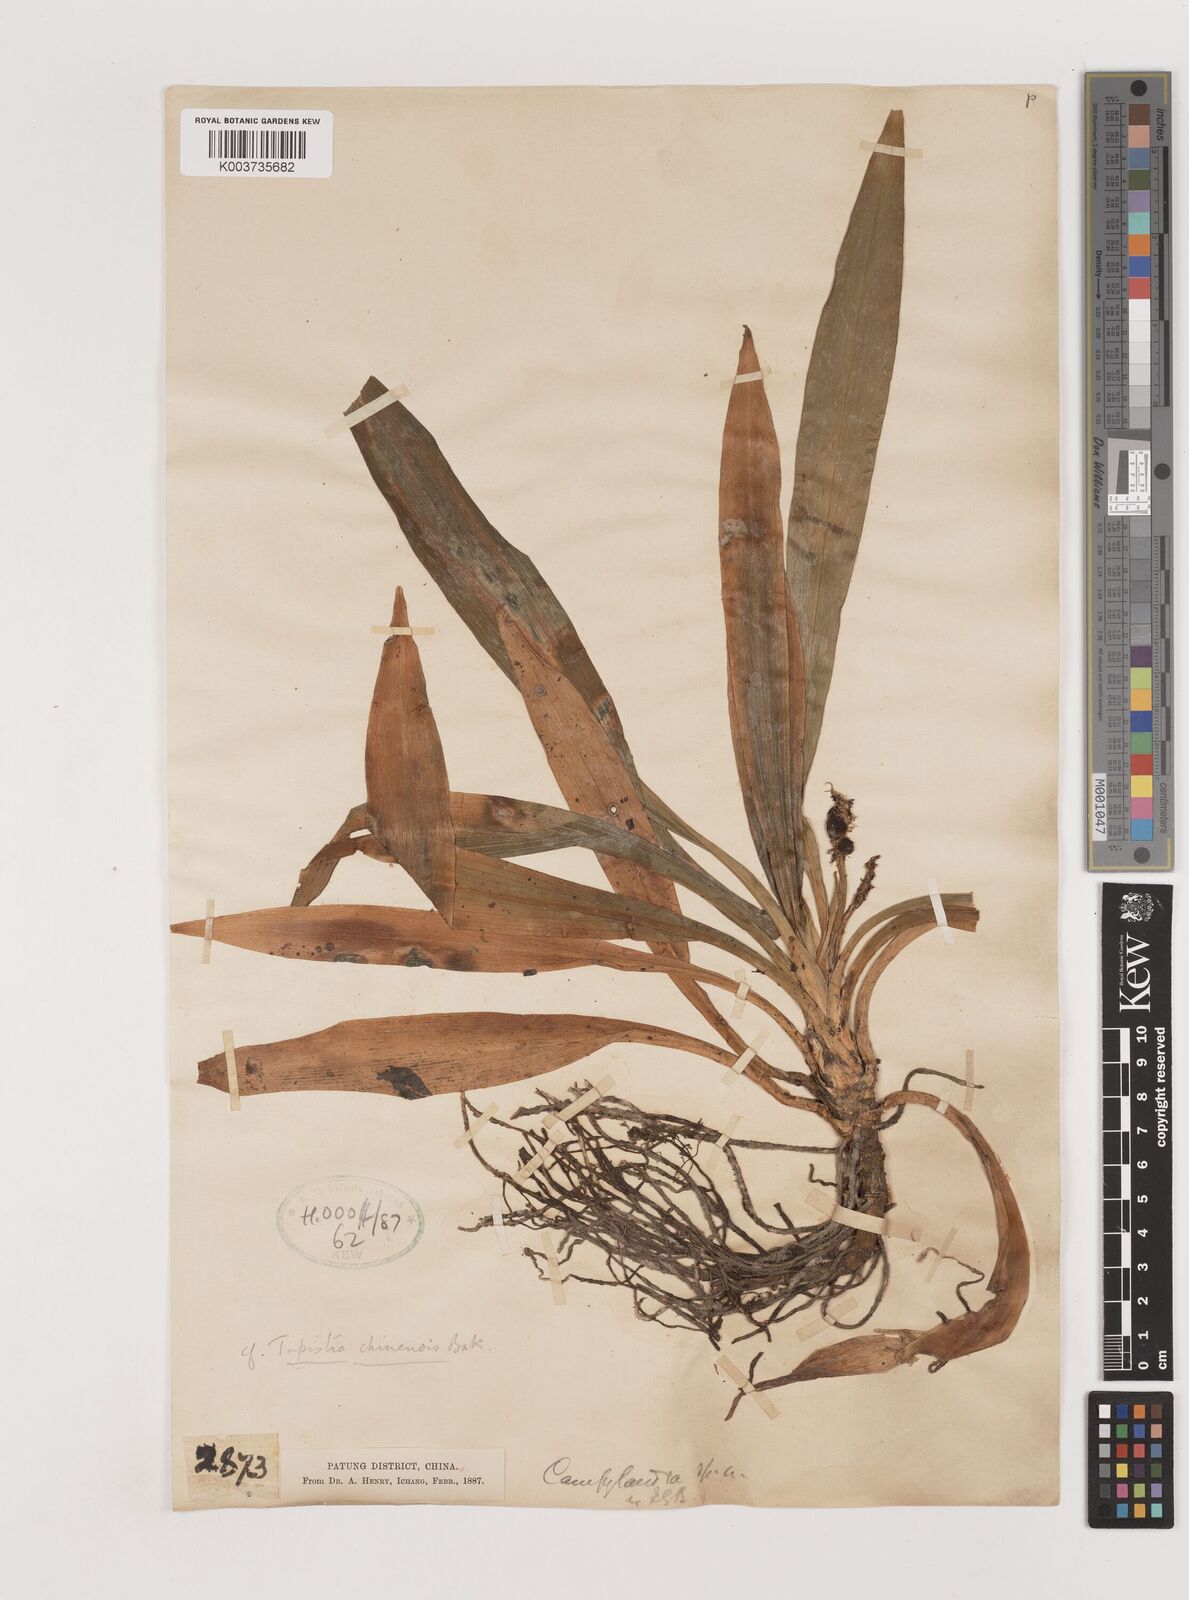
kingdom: Plantae
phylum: Tracheophyta
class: Liliopsida
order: Asparagales
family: Asparagaceae
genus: Rohdea
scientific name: Rohdea fargesii
